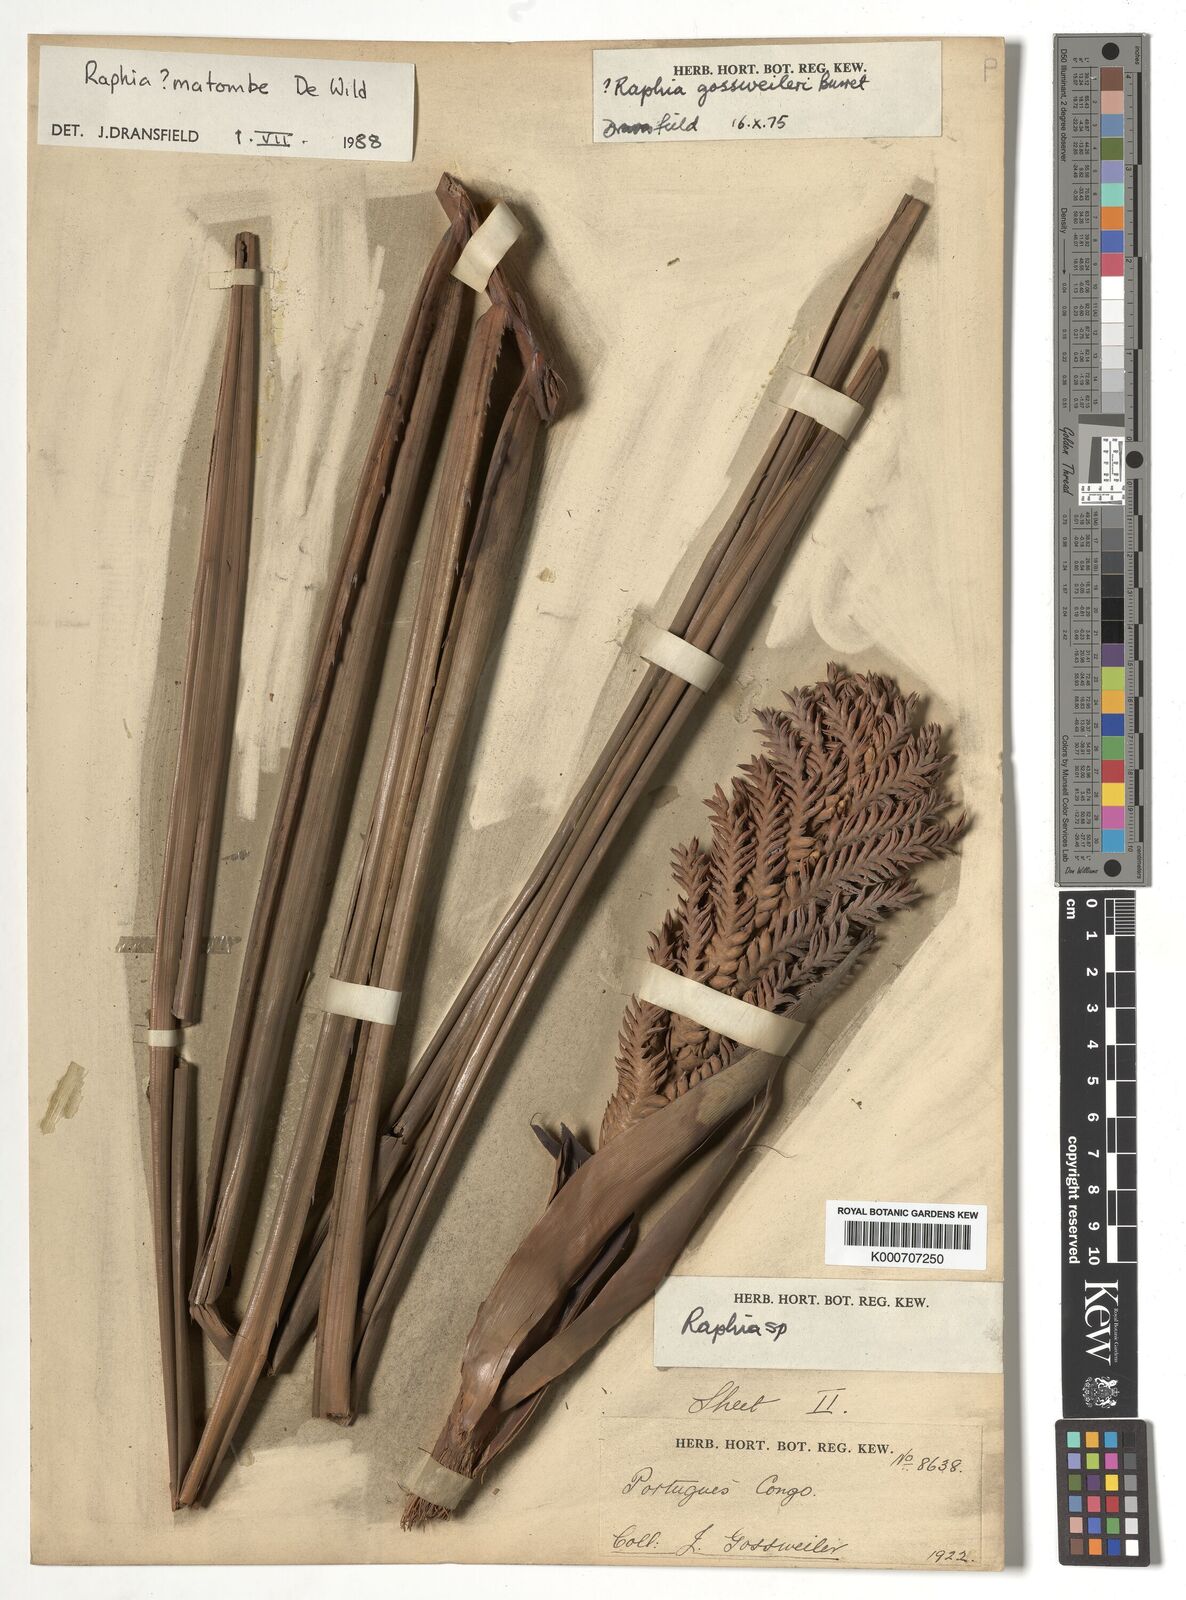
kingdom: Plantae
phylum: Tracheophyta
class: Liliopsida
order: Arecales
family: Arecaceae
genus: Raphia
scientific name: Raphia
